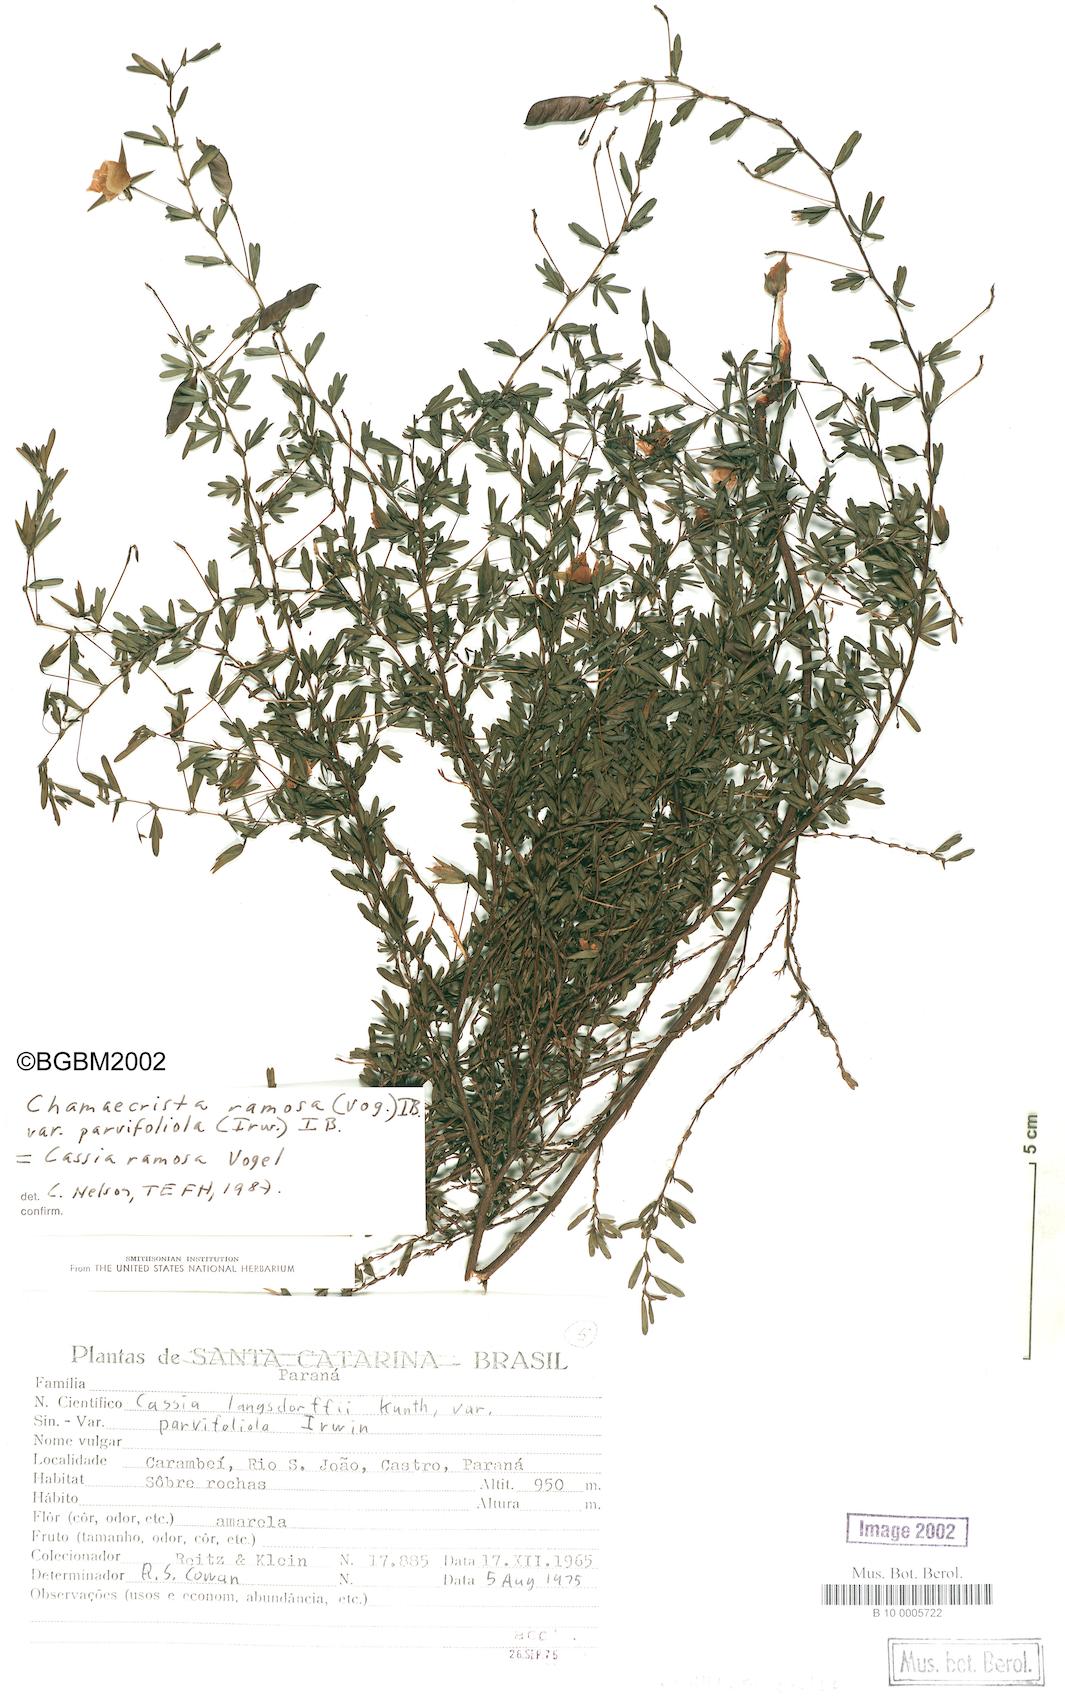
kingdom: Plantae
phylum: Tracheophyta
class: Magnoliopsida
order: Fabales
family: Fabaceae
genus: Chamaecrista
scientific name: Chamaecrista
